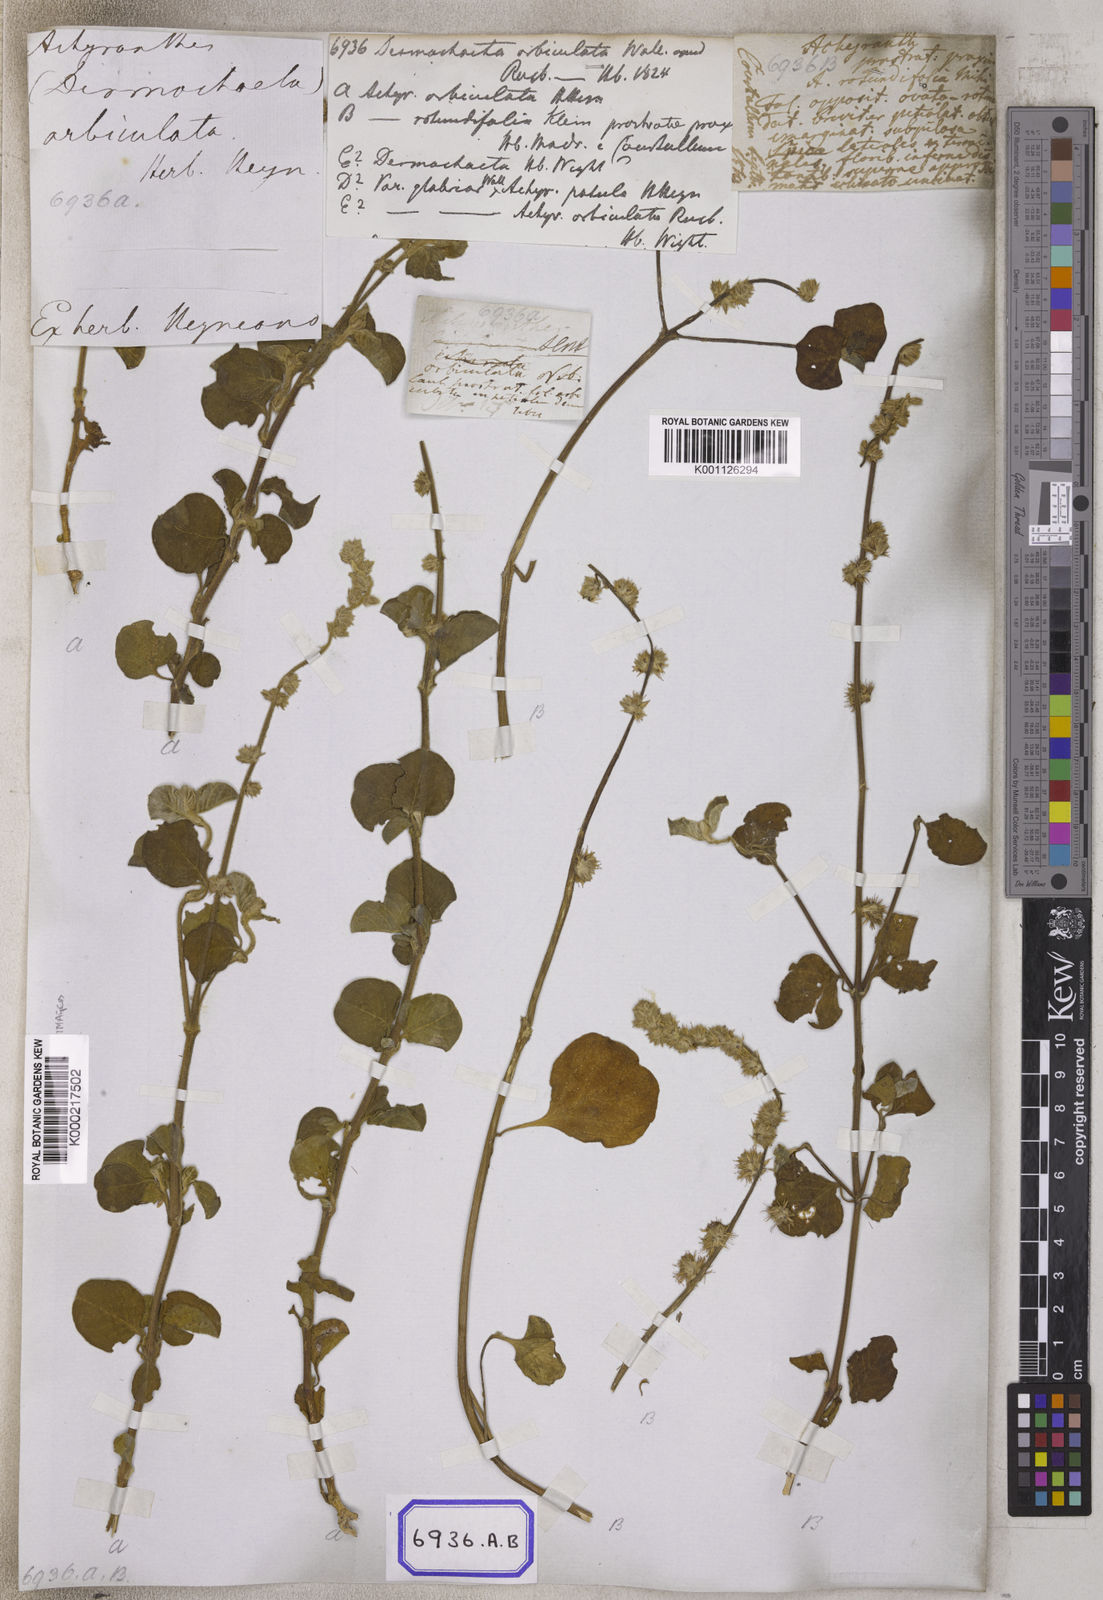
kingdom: Plantae
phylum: Tracheophyta
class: Magnoliopsida
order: Caryophyllales
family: Amaranthaceae
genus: Pupalia
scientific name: Pupalia lappacea
